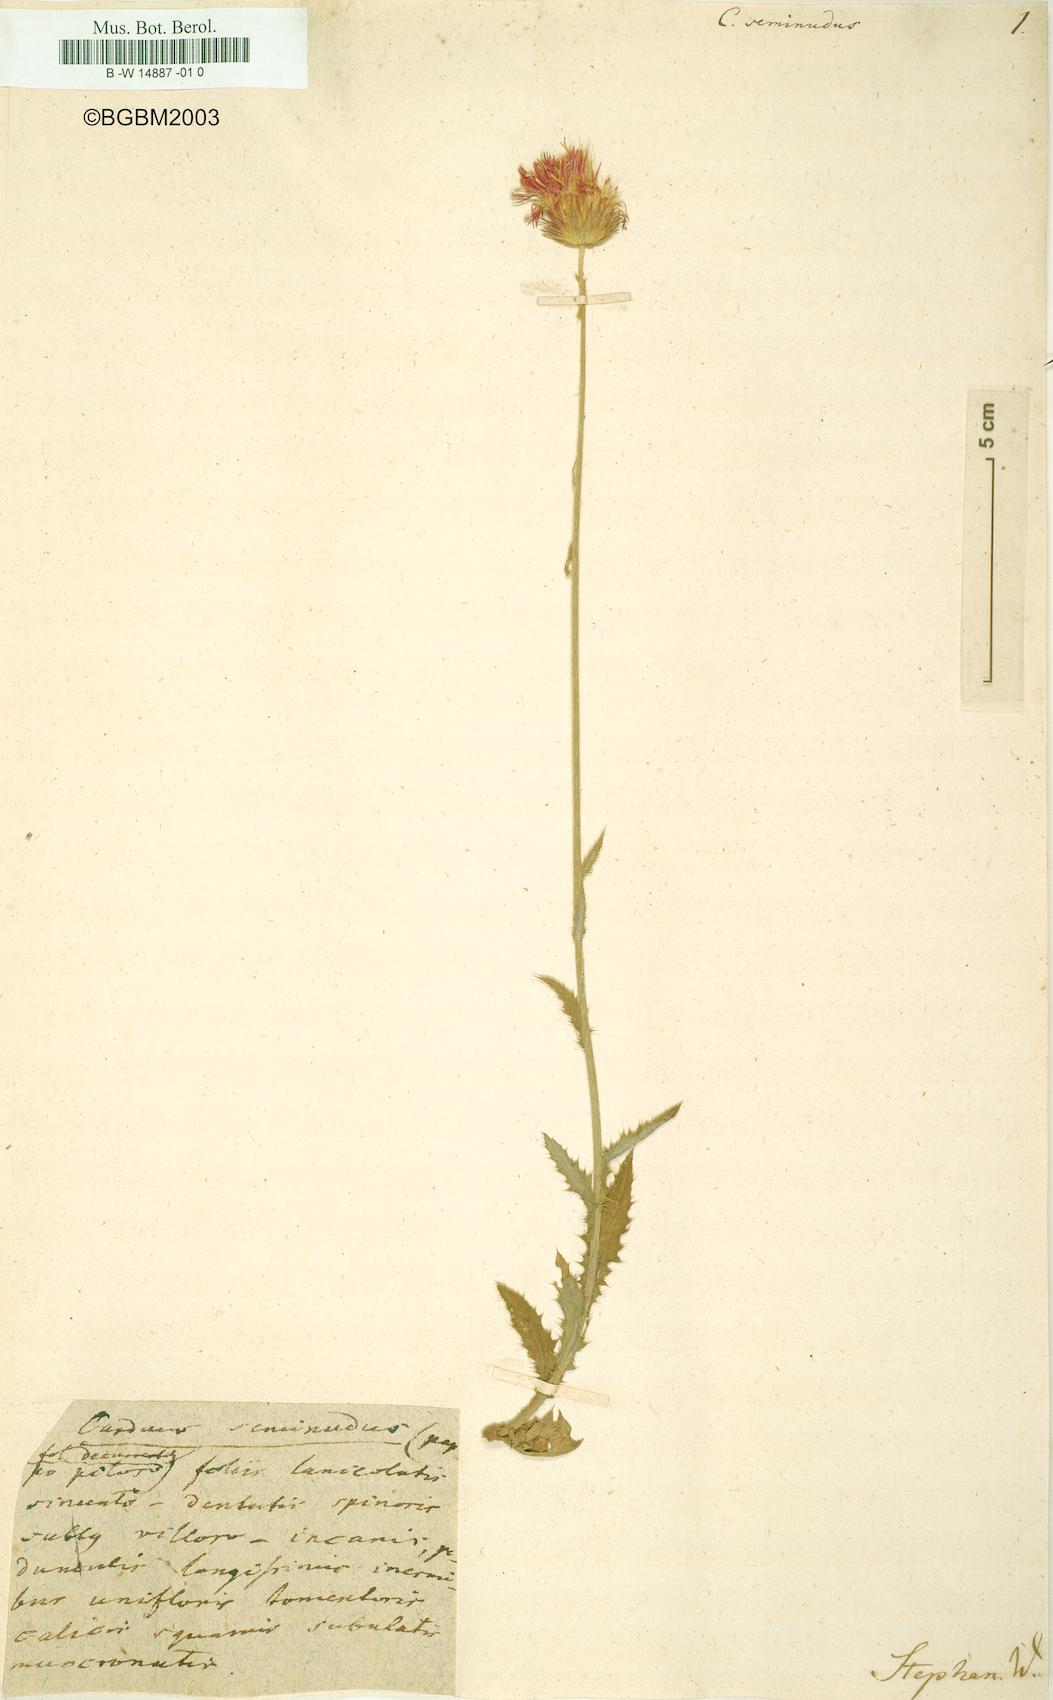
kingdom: Plantae
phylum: Tracheophyta
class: Magnoliopsida
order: Asterales
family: Asteraceae
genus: Carduus
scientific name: Carduus seminudus
